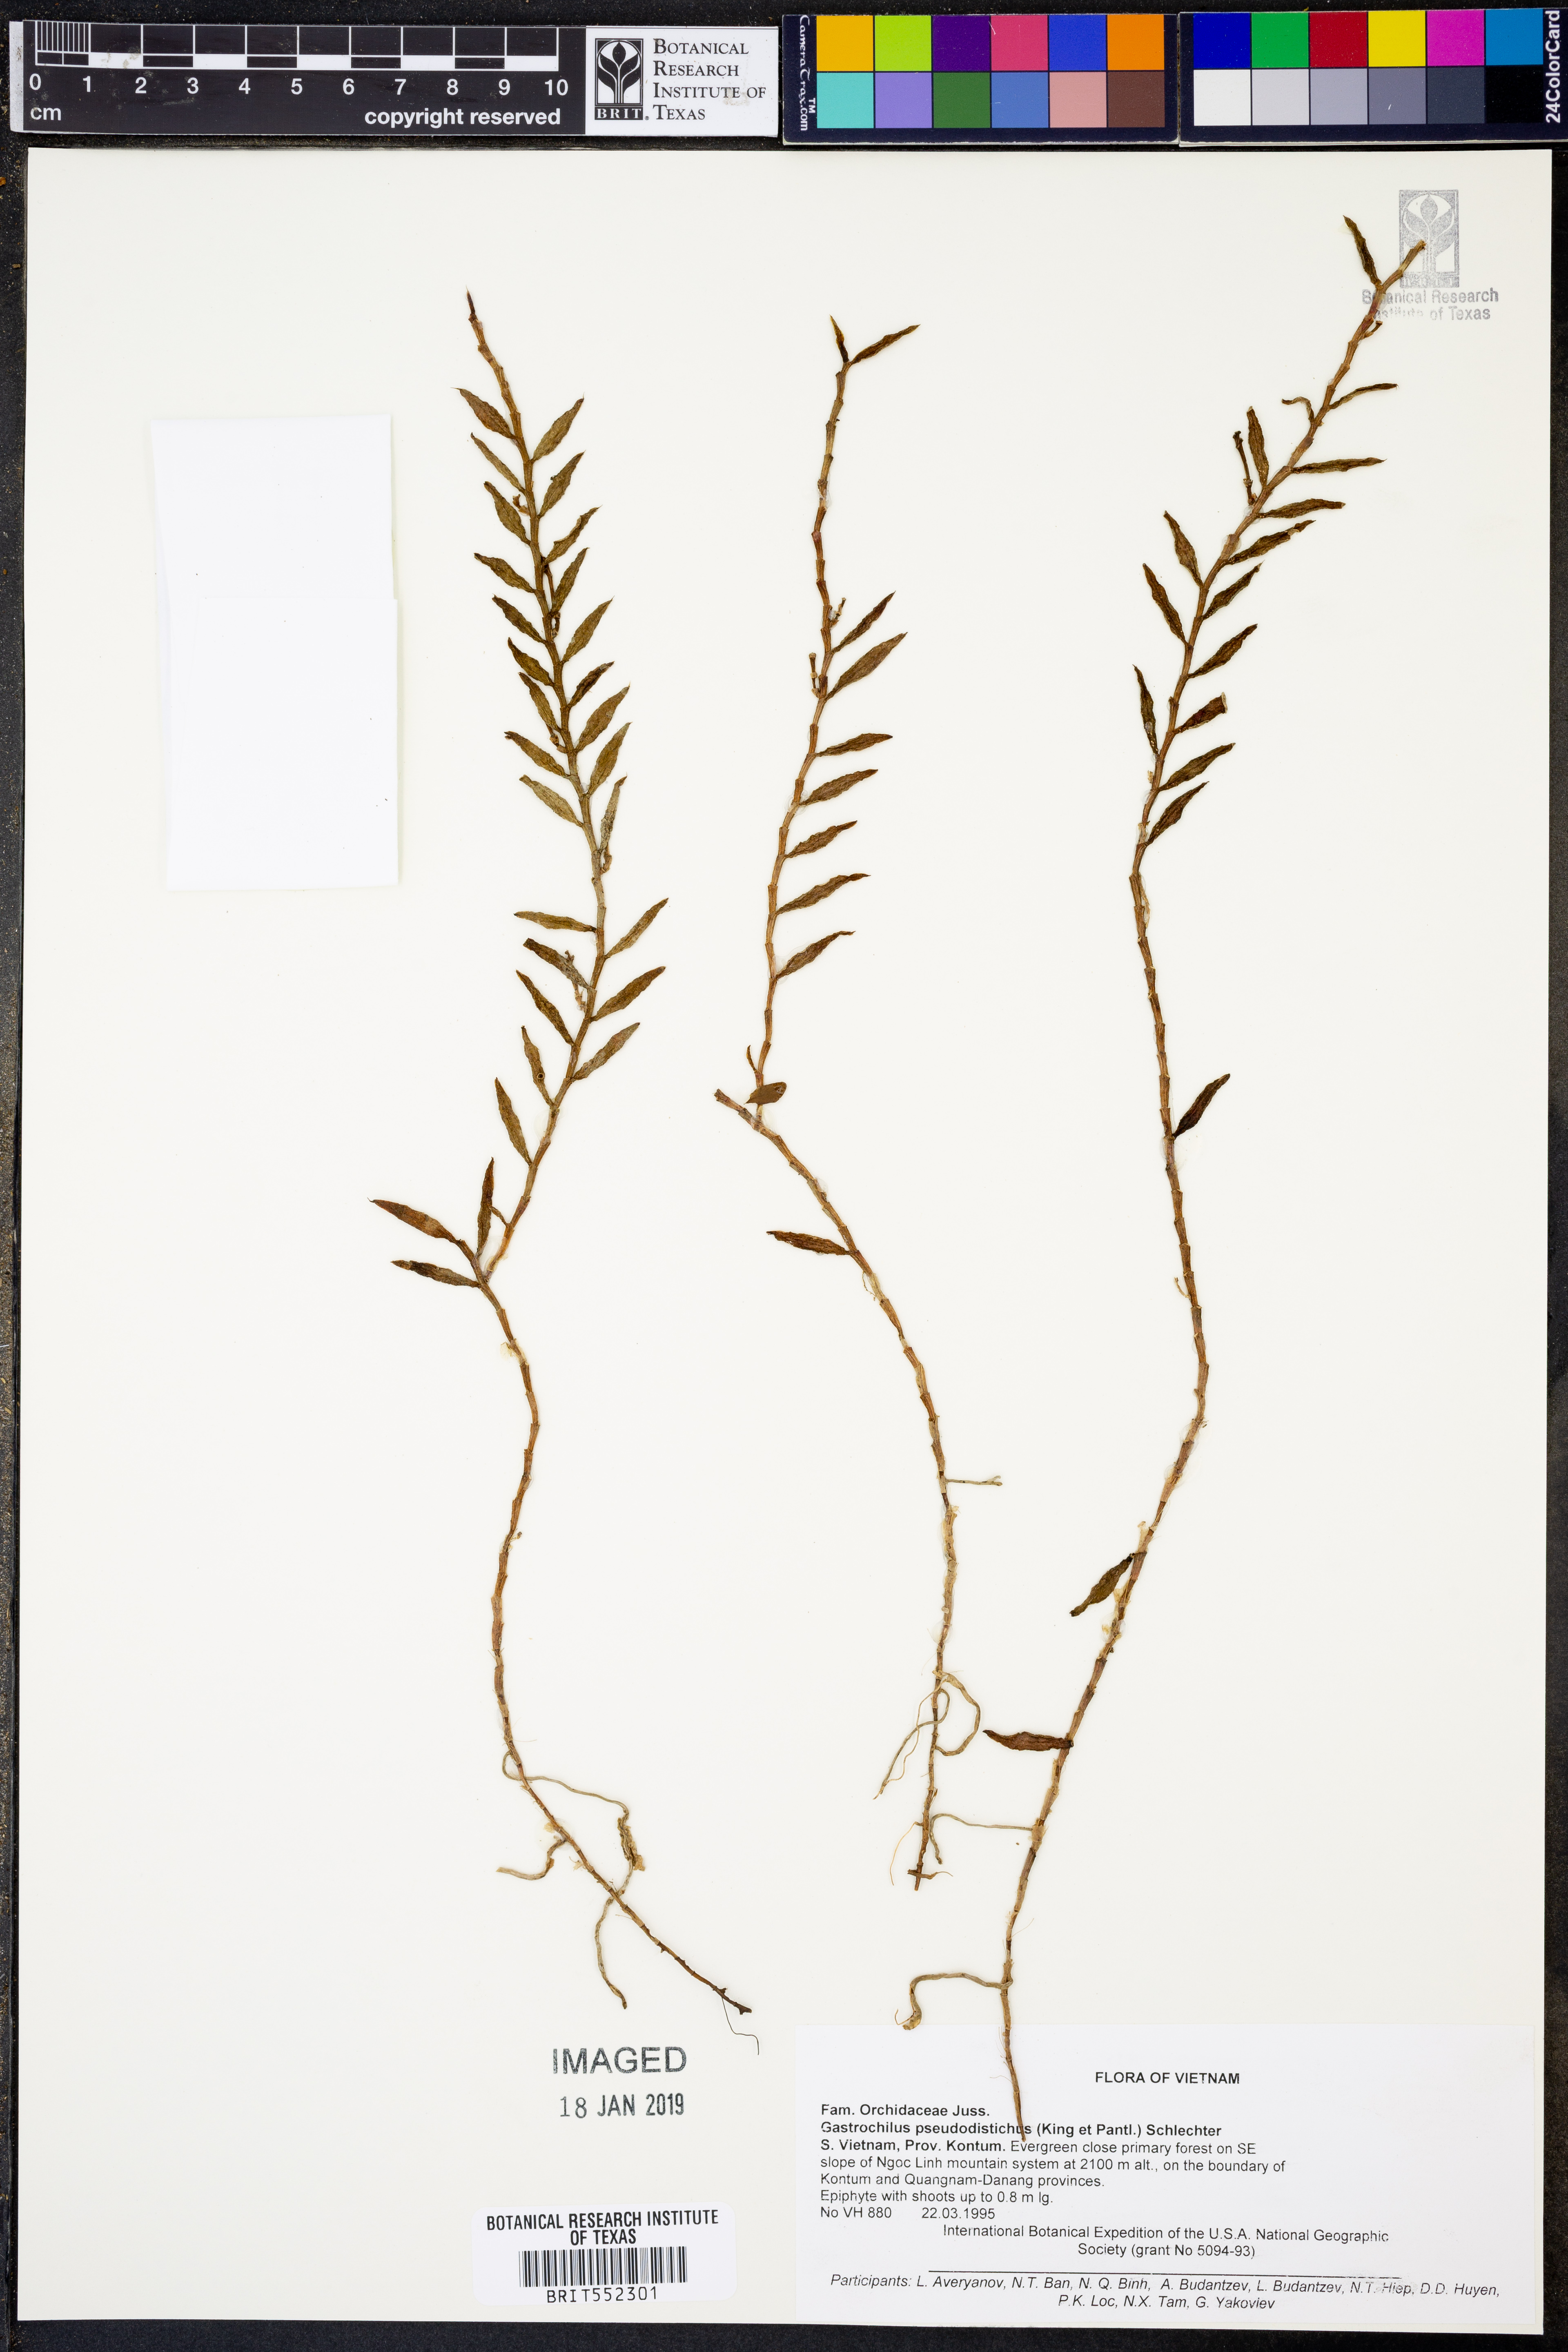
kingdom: Plantae
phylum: Tracheophyta
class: Liliopsida
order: Asparagales
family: Orchidaceae
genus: Gastrochilus
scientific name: Gastrochilus pseudodistichus
